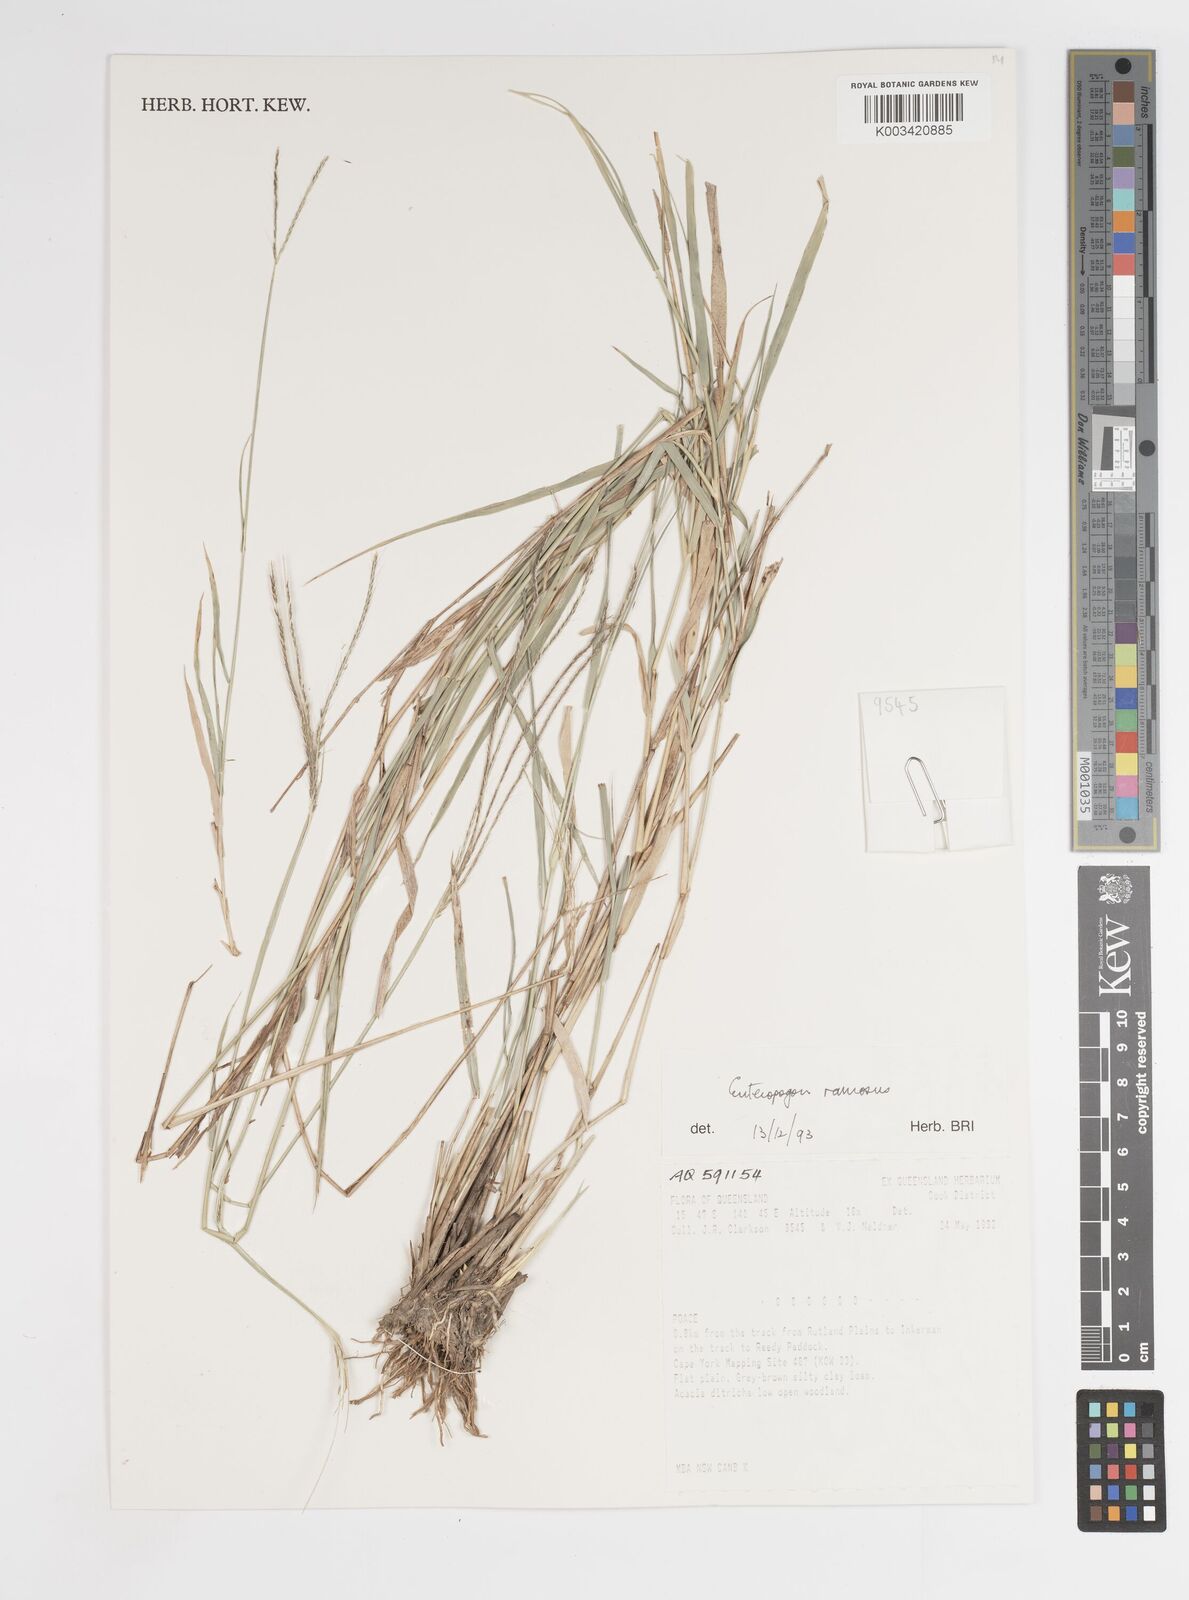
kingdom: Plantae
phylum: Tracheophyta
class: Liliopsida
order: Poales
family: Poaceae
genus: Enteropogon
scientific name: Enteropogon minutus
